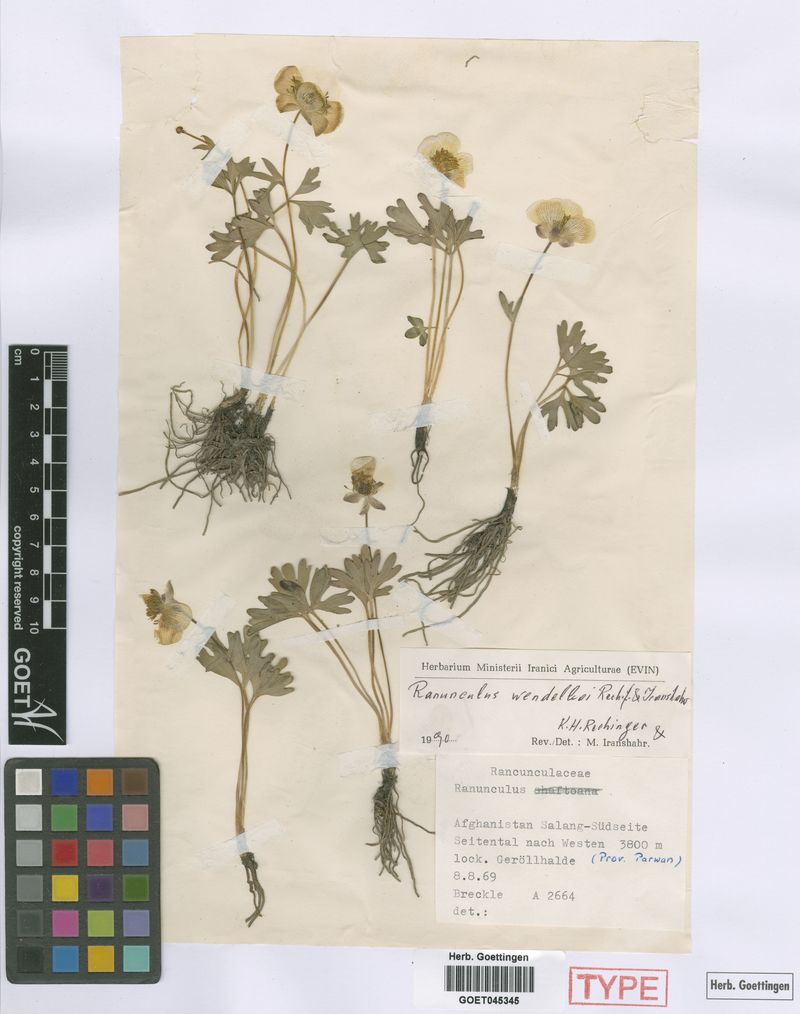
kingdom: Plantae
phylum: Tracheophyta
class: Magnoliopsida
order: Ranunculales
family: Ranunculaceae
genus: Ranunculus
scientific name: Ranunculus wendelboi
